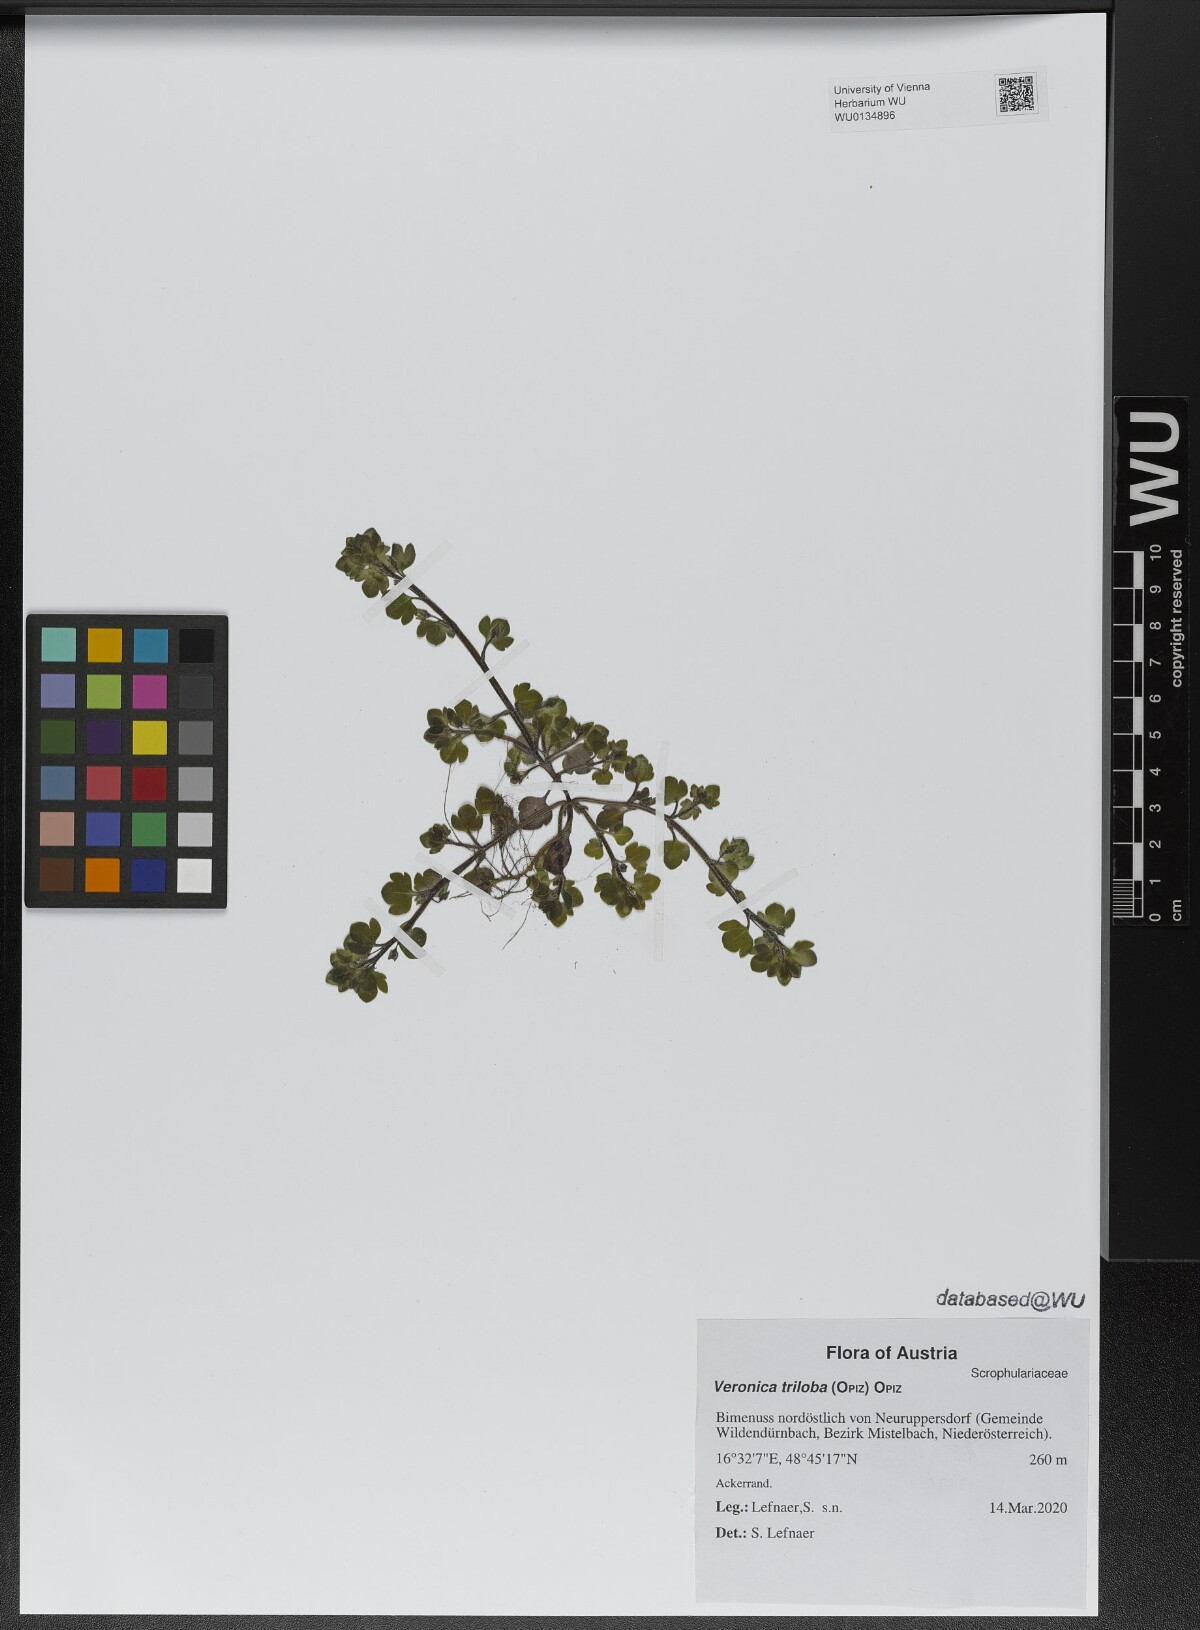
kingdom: Plantae
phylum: Tracheophyta
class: Magnoliopsida
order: Lamiales
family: Plantaginaceae
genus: Veronica
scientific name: Veronica triloba
